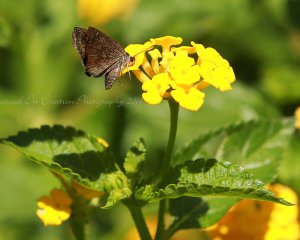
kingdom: Animalia
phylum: Arthropoda
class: Insecta
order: Lepidoptera
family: Hesperiidae
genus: Staphylus
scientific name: Staphylus mazans
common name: Hayhurst's Scallopwing
